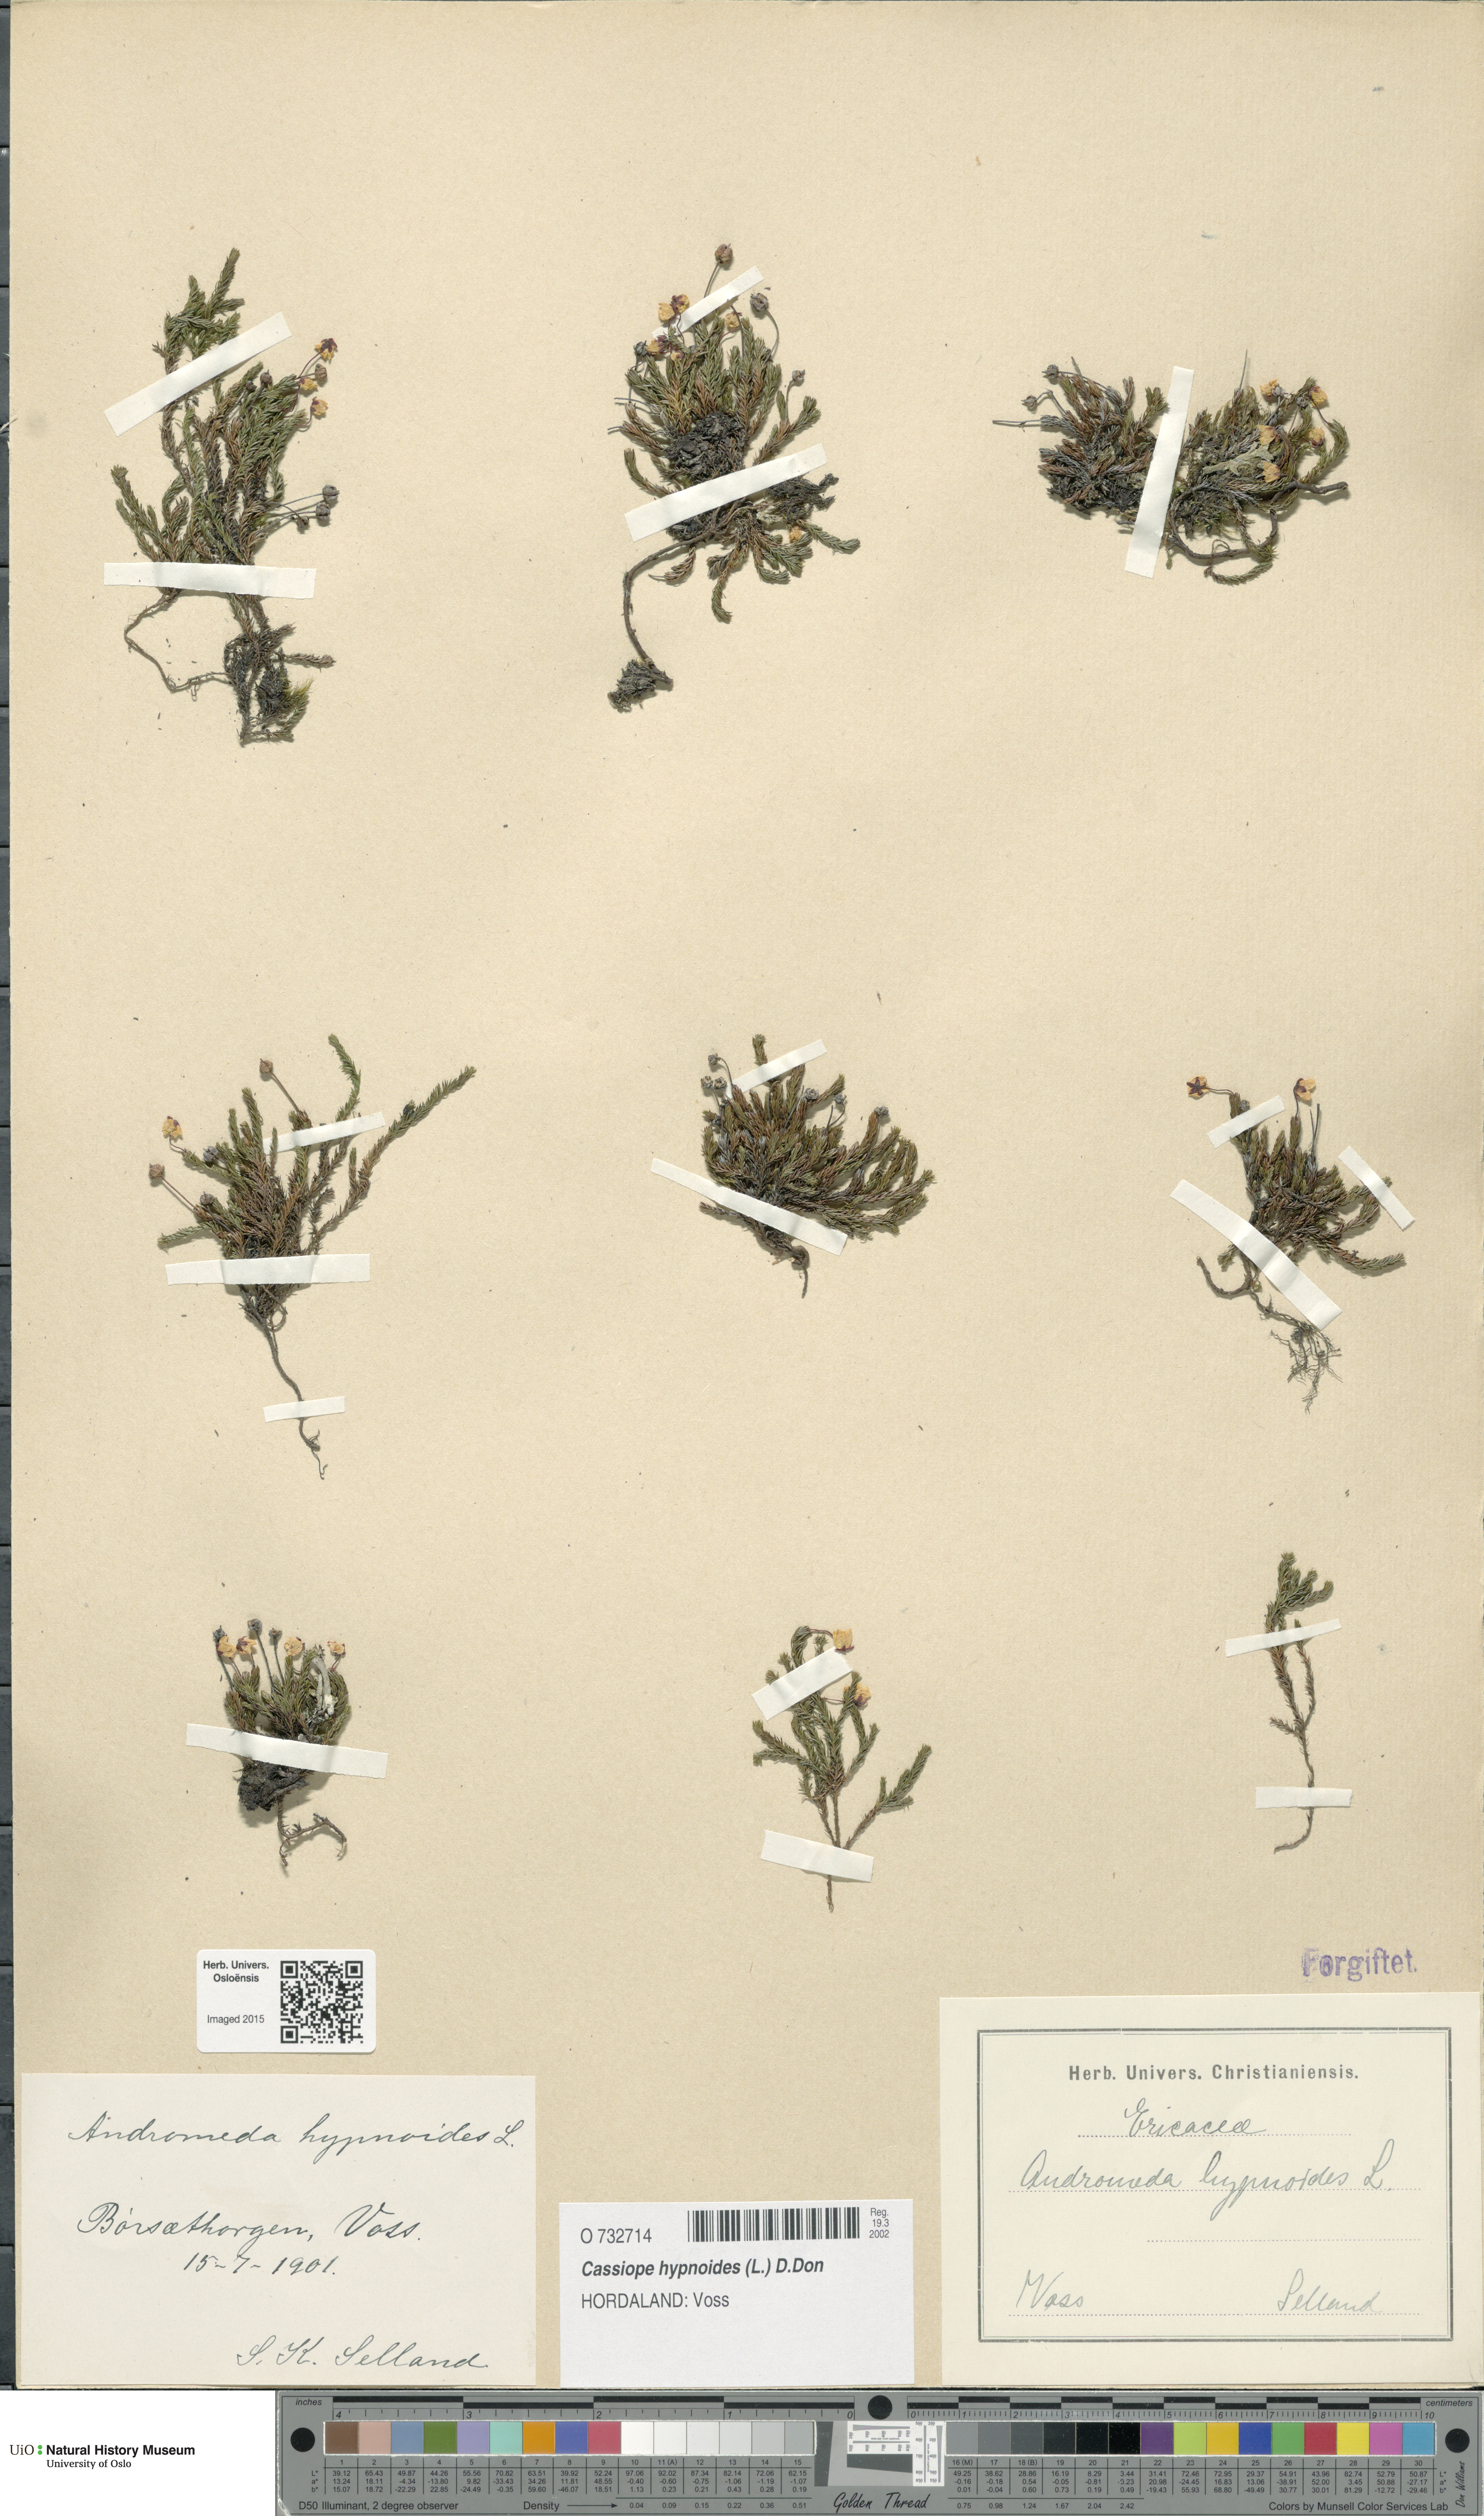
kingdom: Plantae
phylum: Tracheophyta
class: Magnoliopsida
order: Ericales
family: Ericaceae
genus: Harrimanella
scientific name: Harrimanella hypnoides
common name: Moss bell heather
